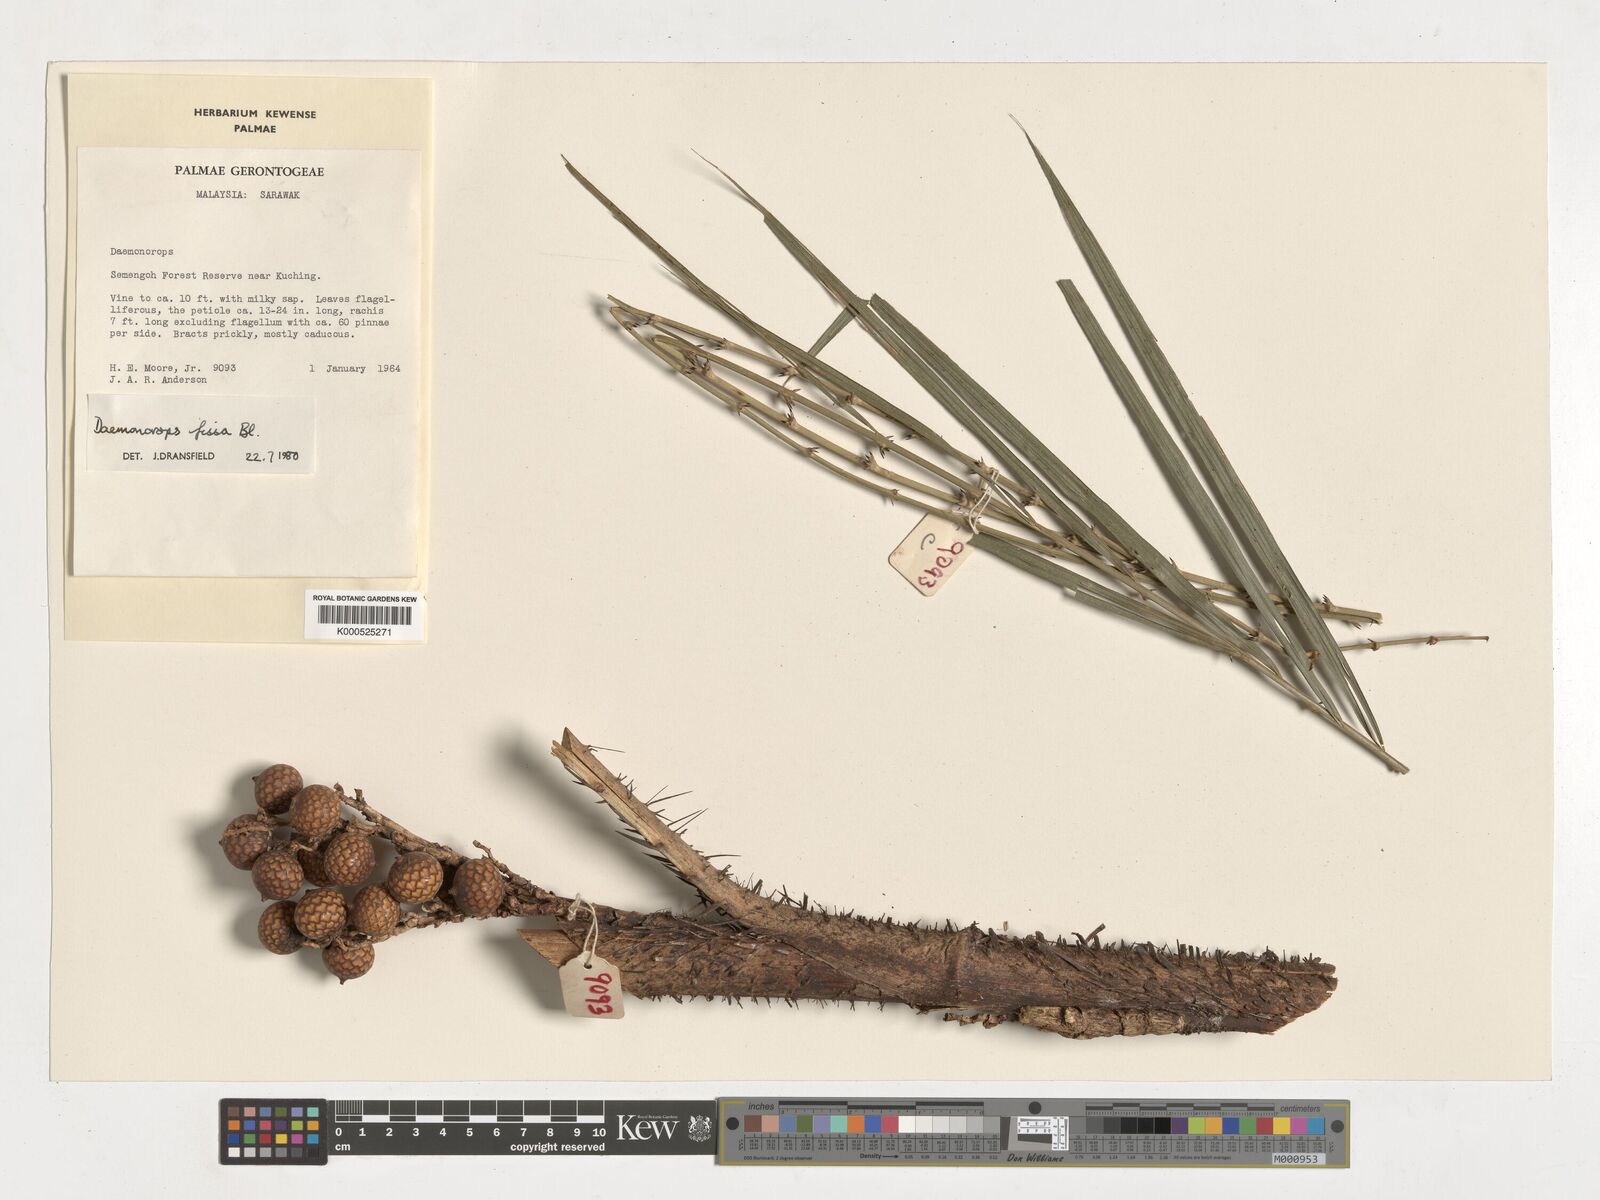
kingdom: Plantae
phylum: Tracheophyta
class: Liliopsida
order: Arecales
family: Arecaceae
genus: Calamus
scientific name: Calamus melanochaetes
